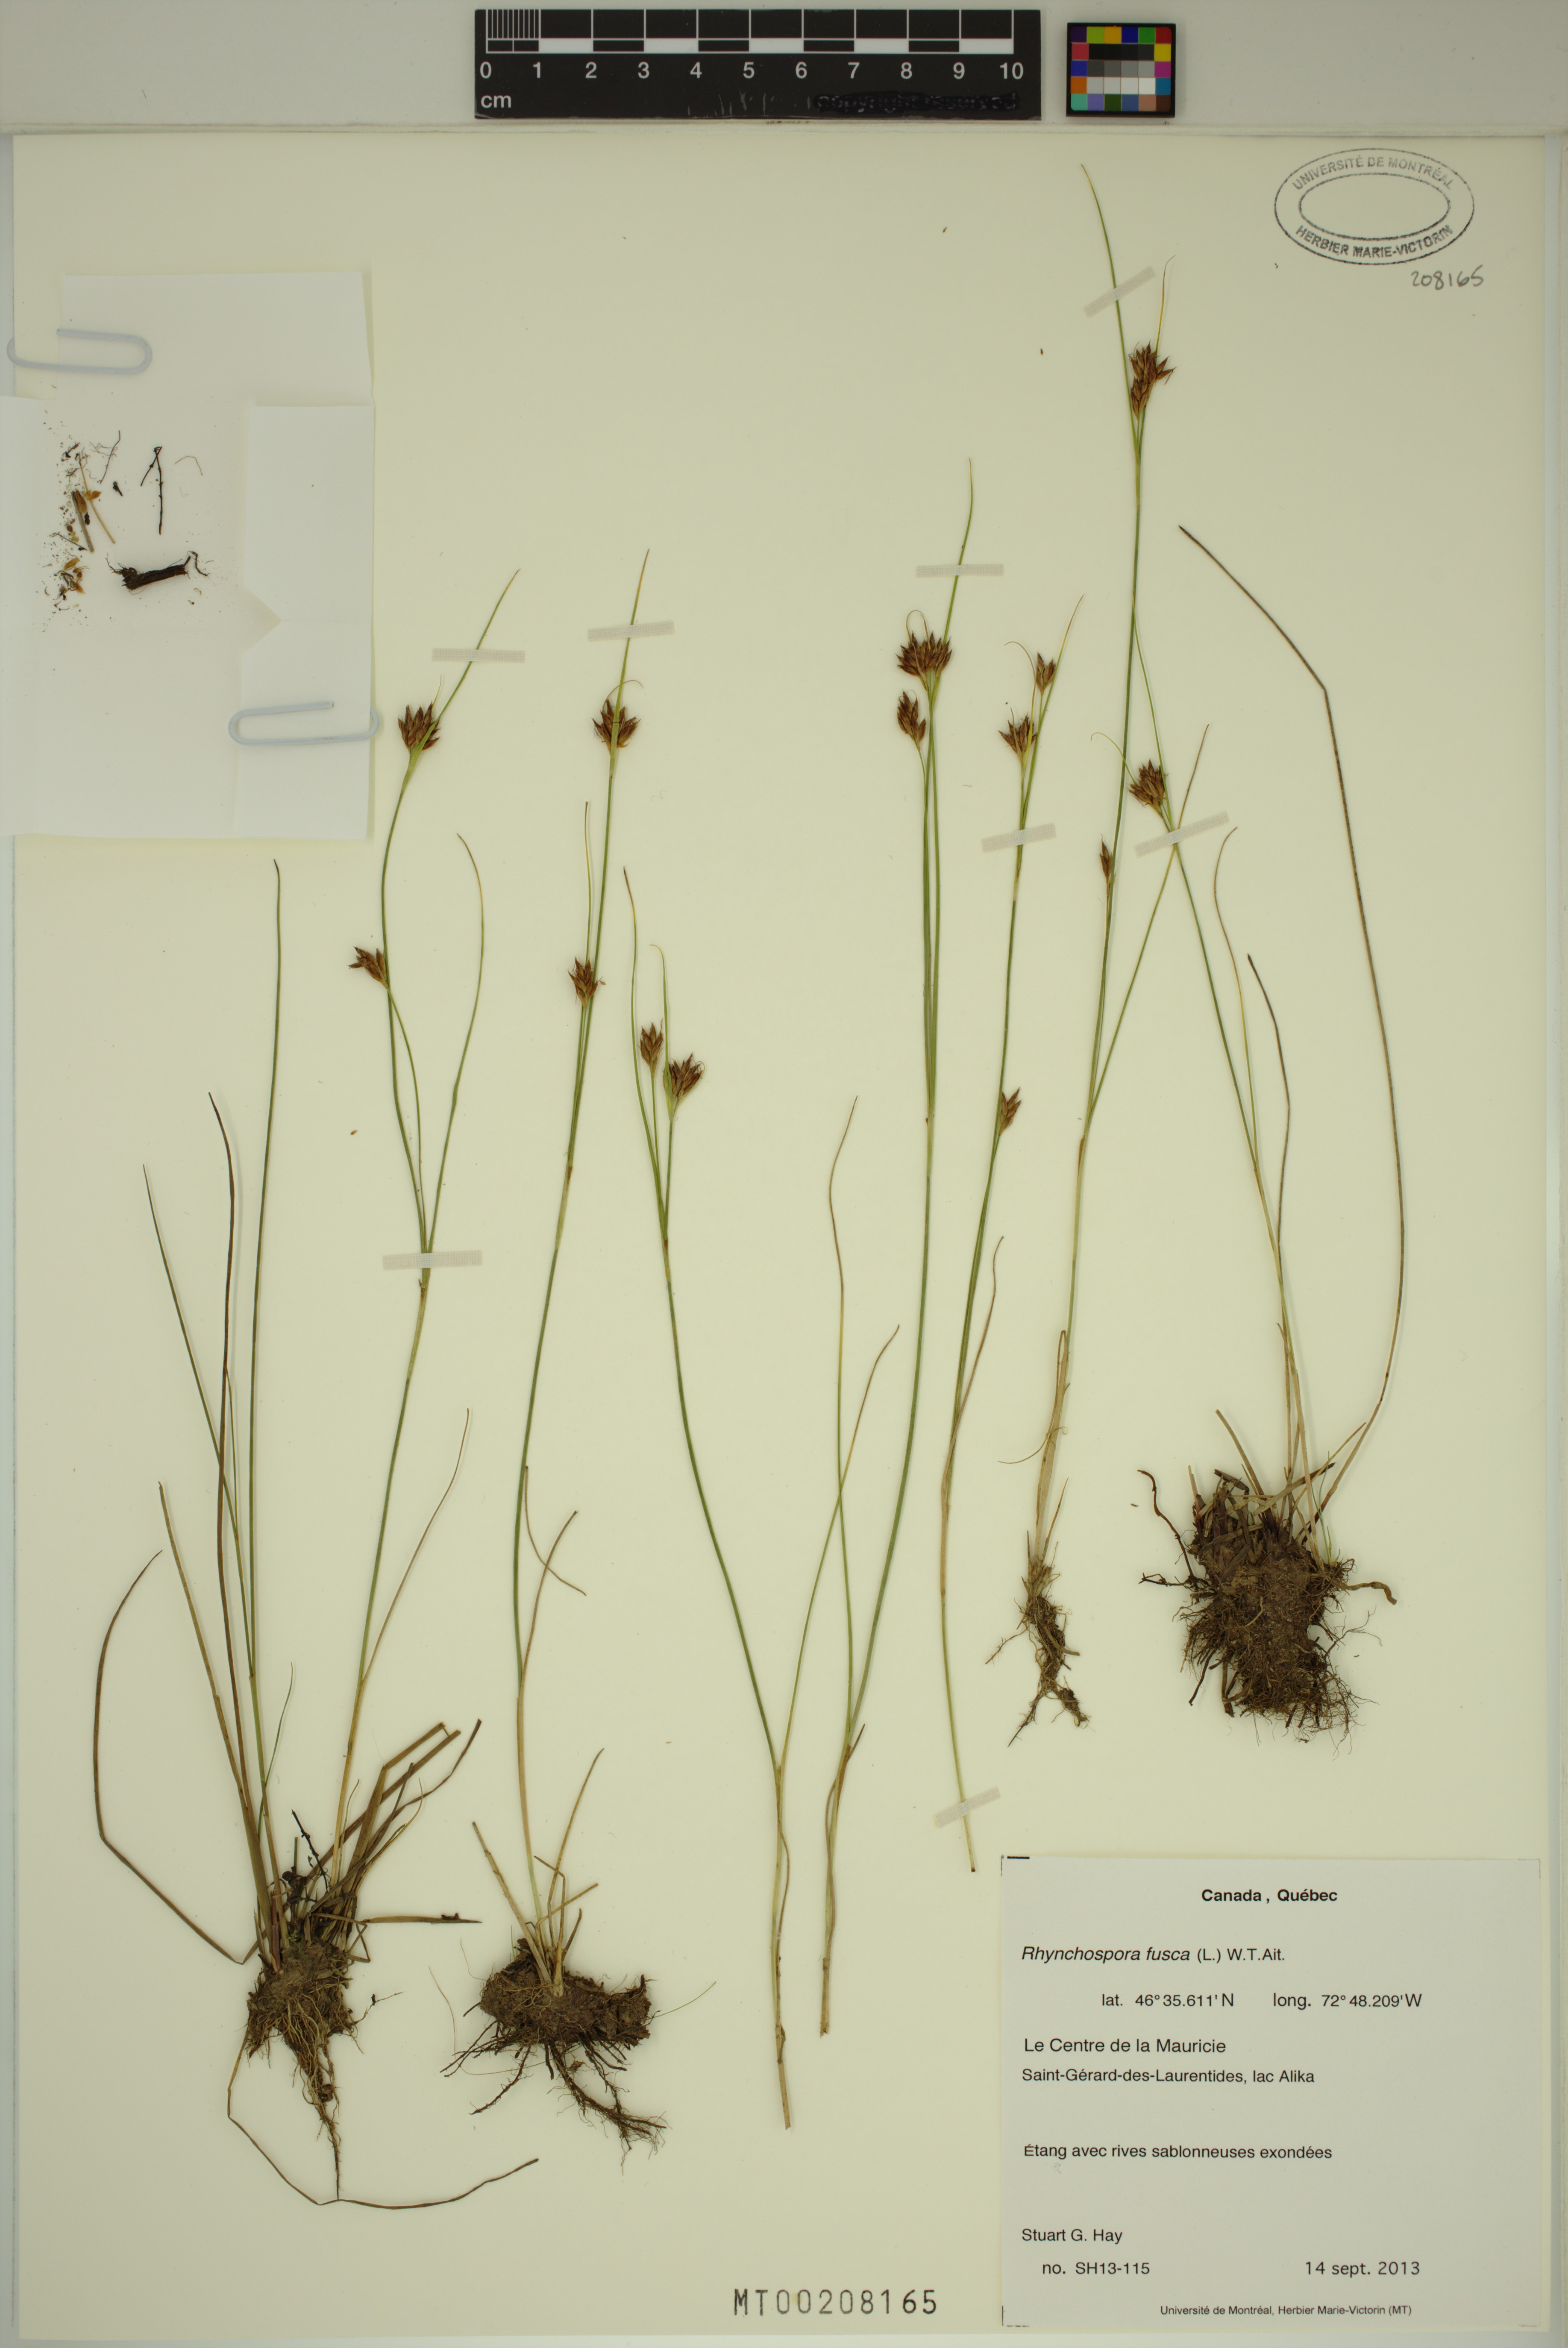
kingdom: Plantae
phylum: Tracheophyta
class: Liliopsida
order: Poales
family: Cyperaceae
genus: Rhynchospora
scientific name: Rhynchospora fusca
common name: Brown beak-sedge
